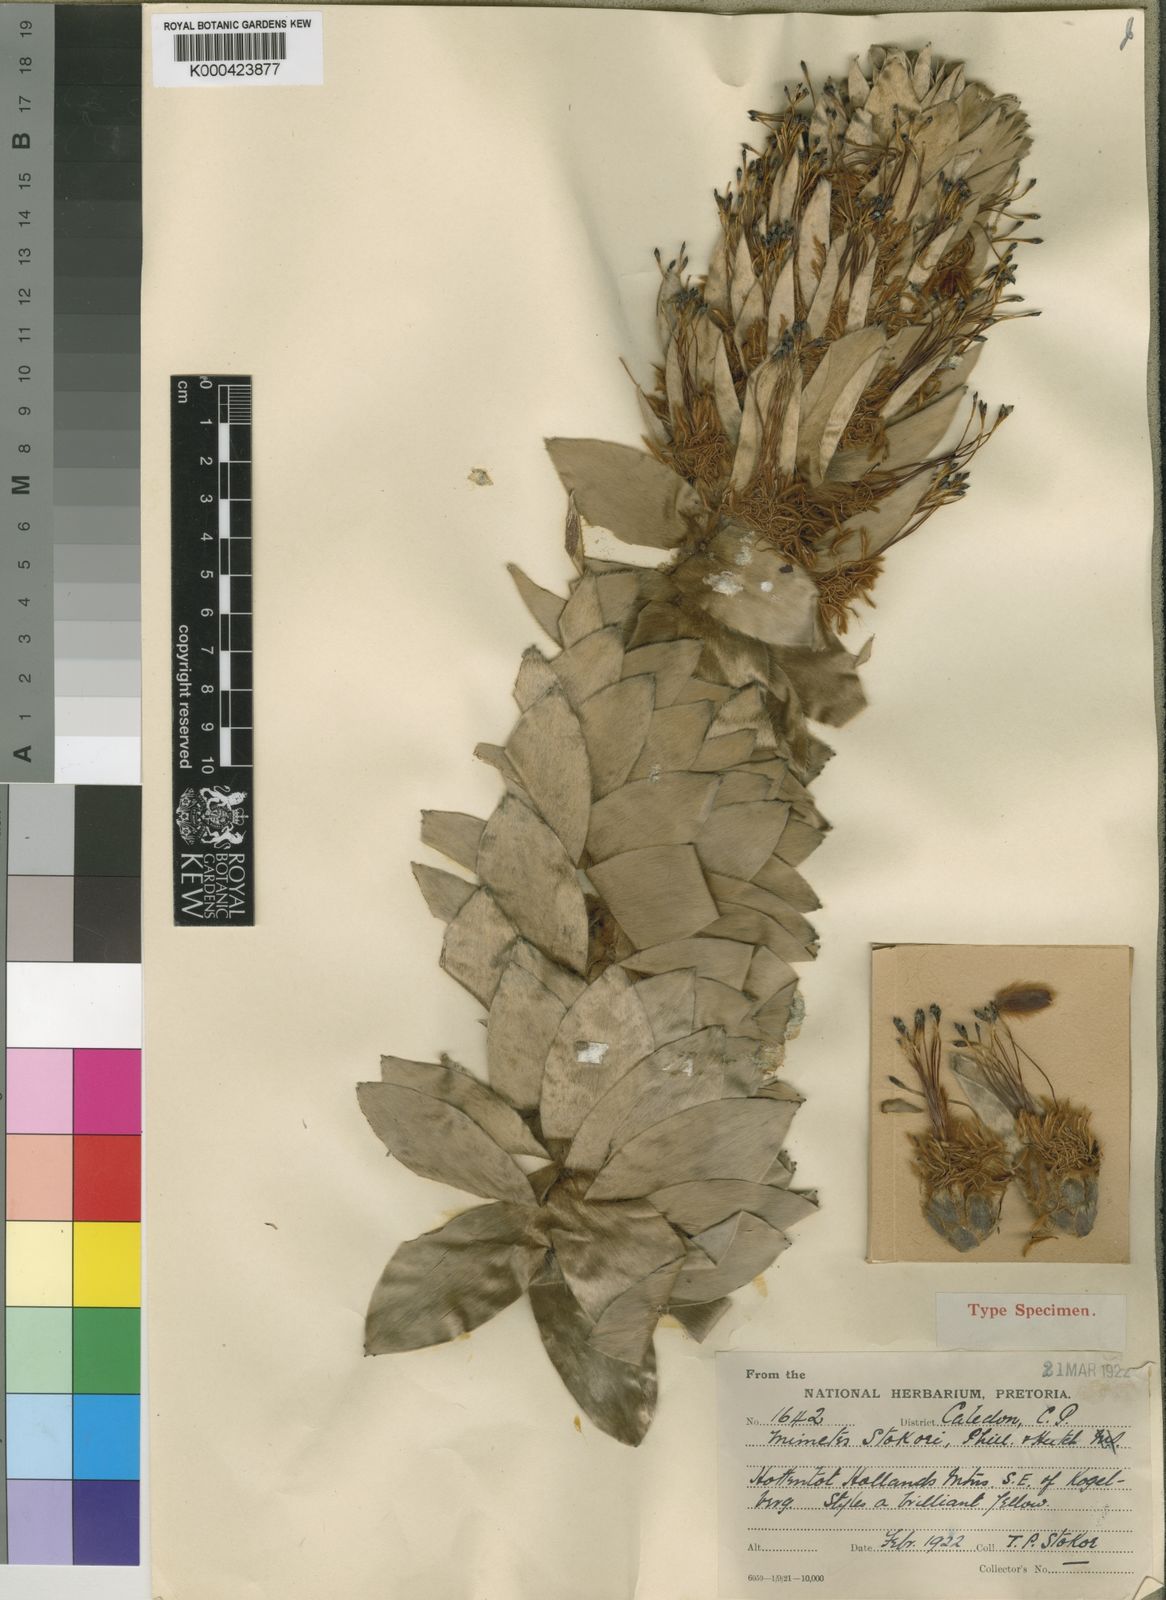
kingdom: Plantae
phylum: Tracheophyta
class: Magnoliopsida
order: Proteales
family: Proteaceae
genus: Mimetes
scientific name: Mimetes stokoei
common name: Mace pagoda
